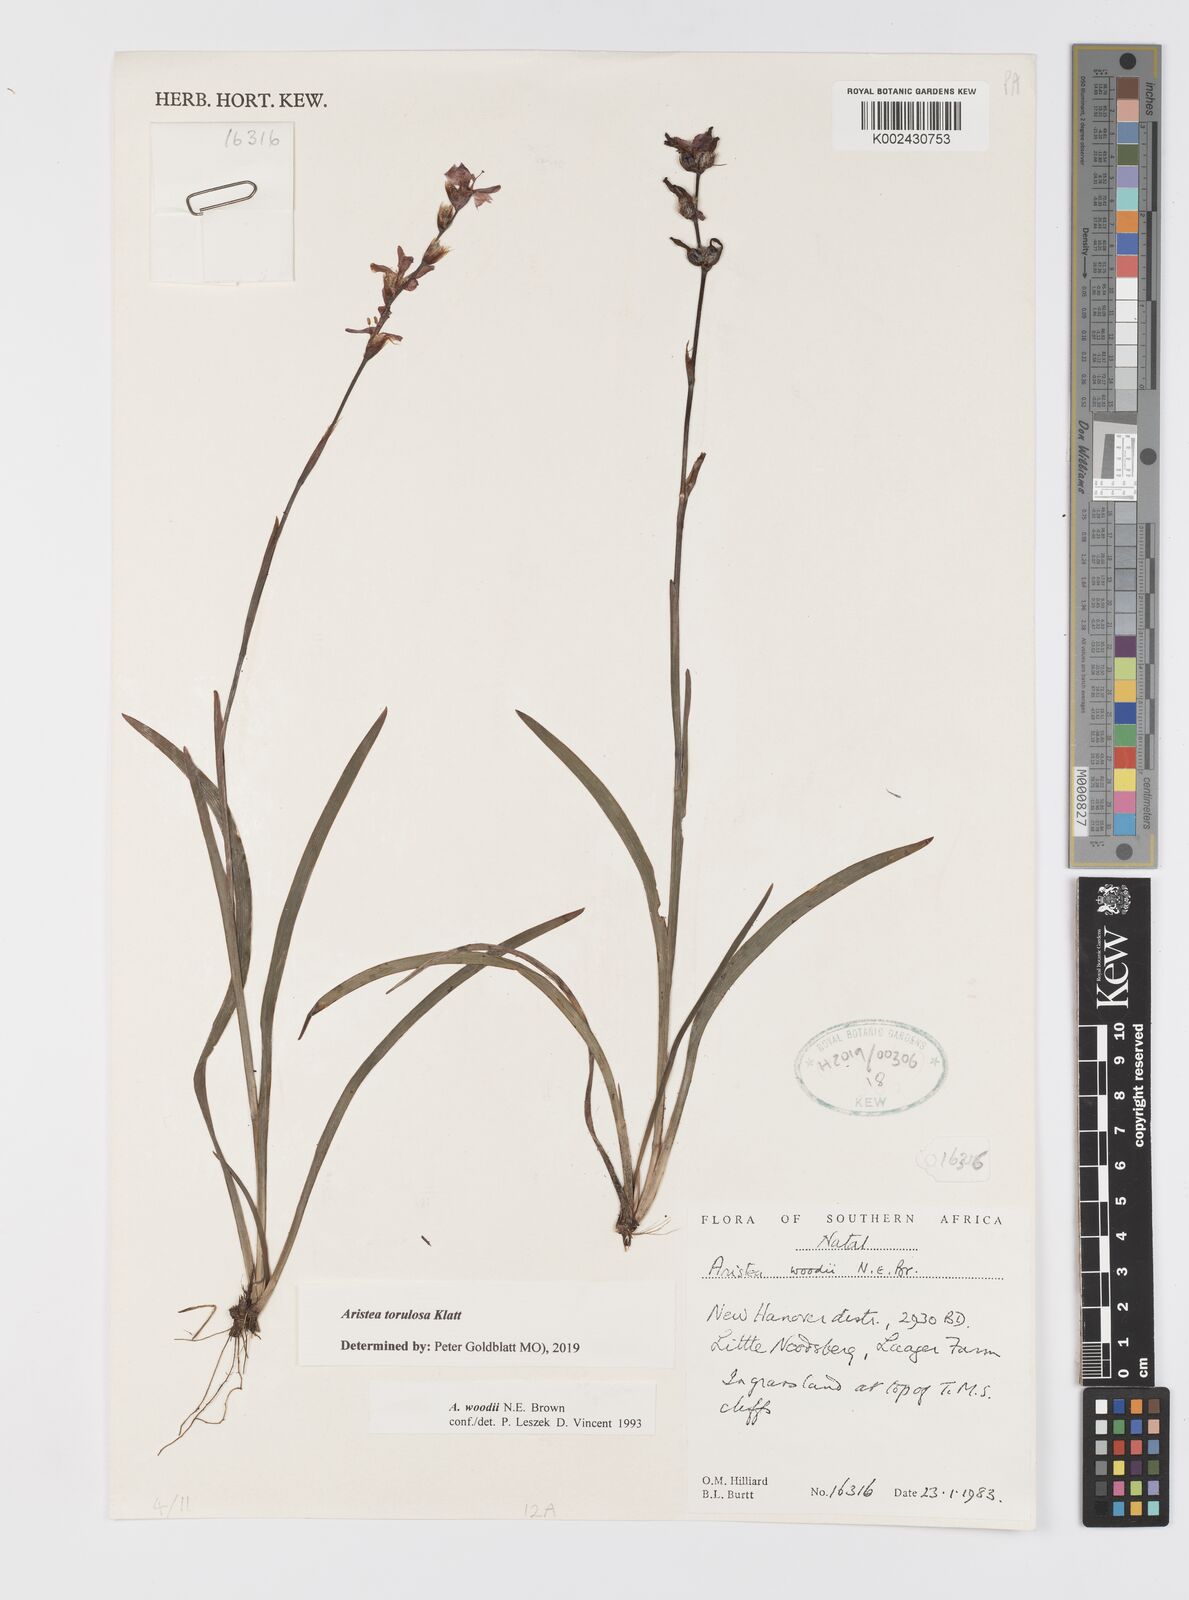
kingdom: Plantae
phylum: Tracheophyta
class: Liliopsida
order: Asparagales
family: Iridaceae
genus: Aristea
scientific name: Aristea torulosa
